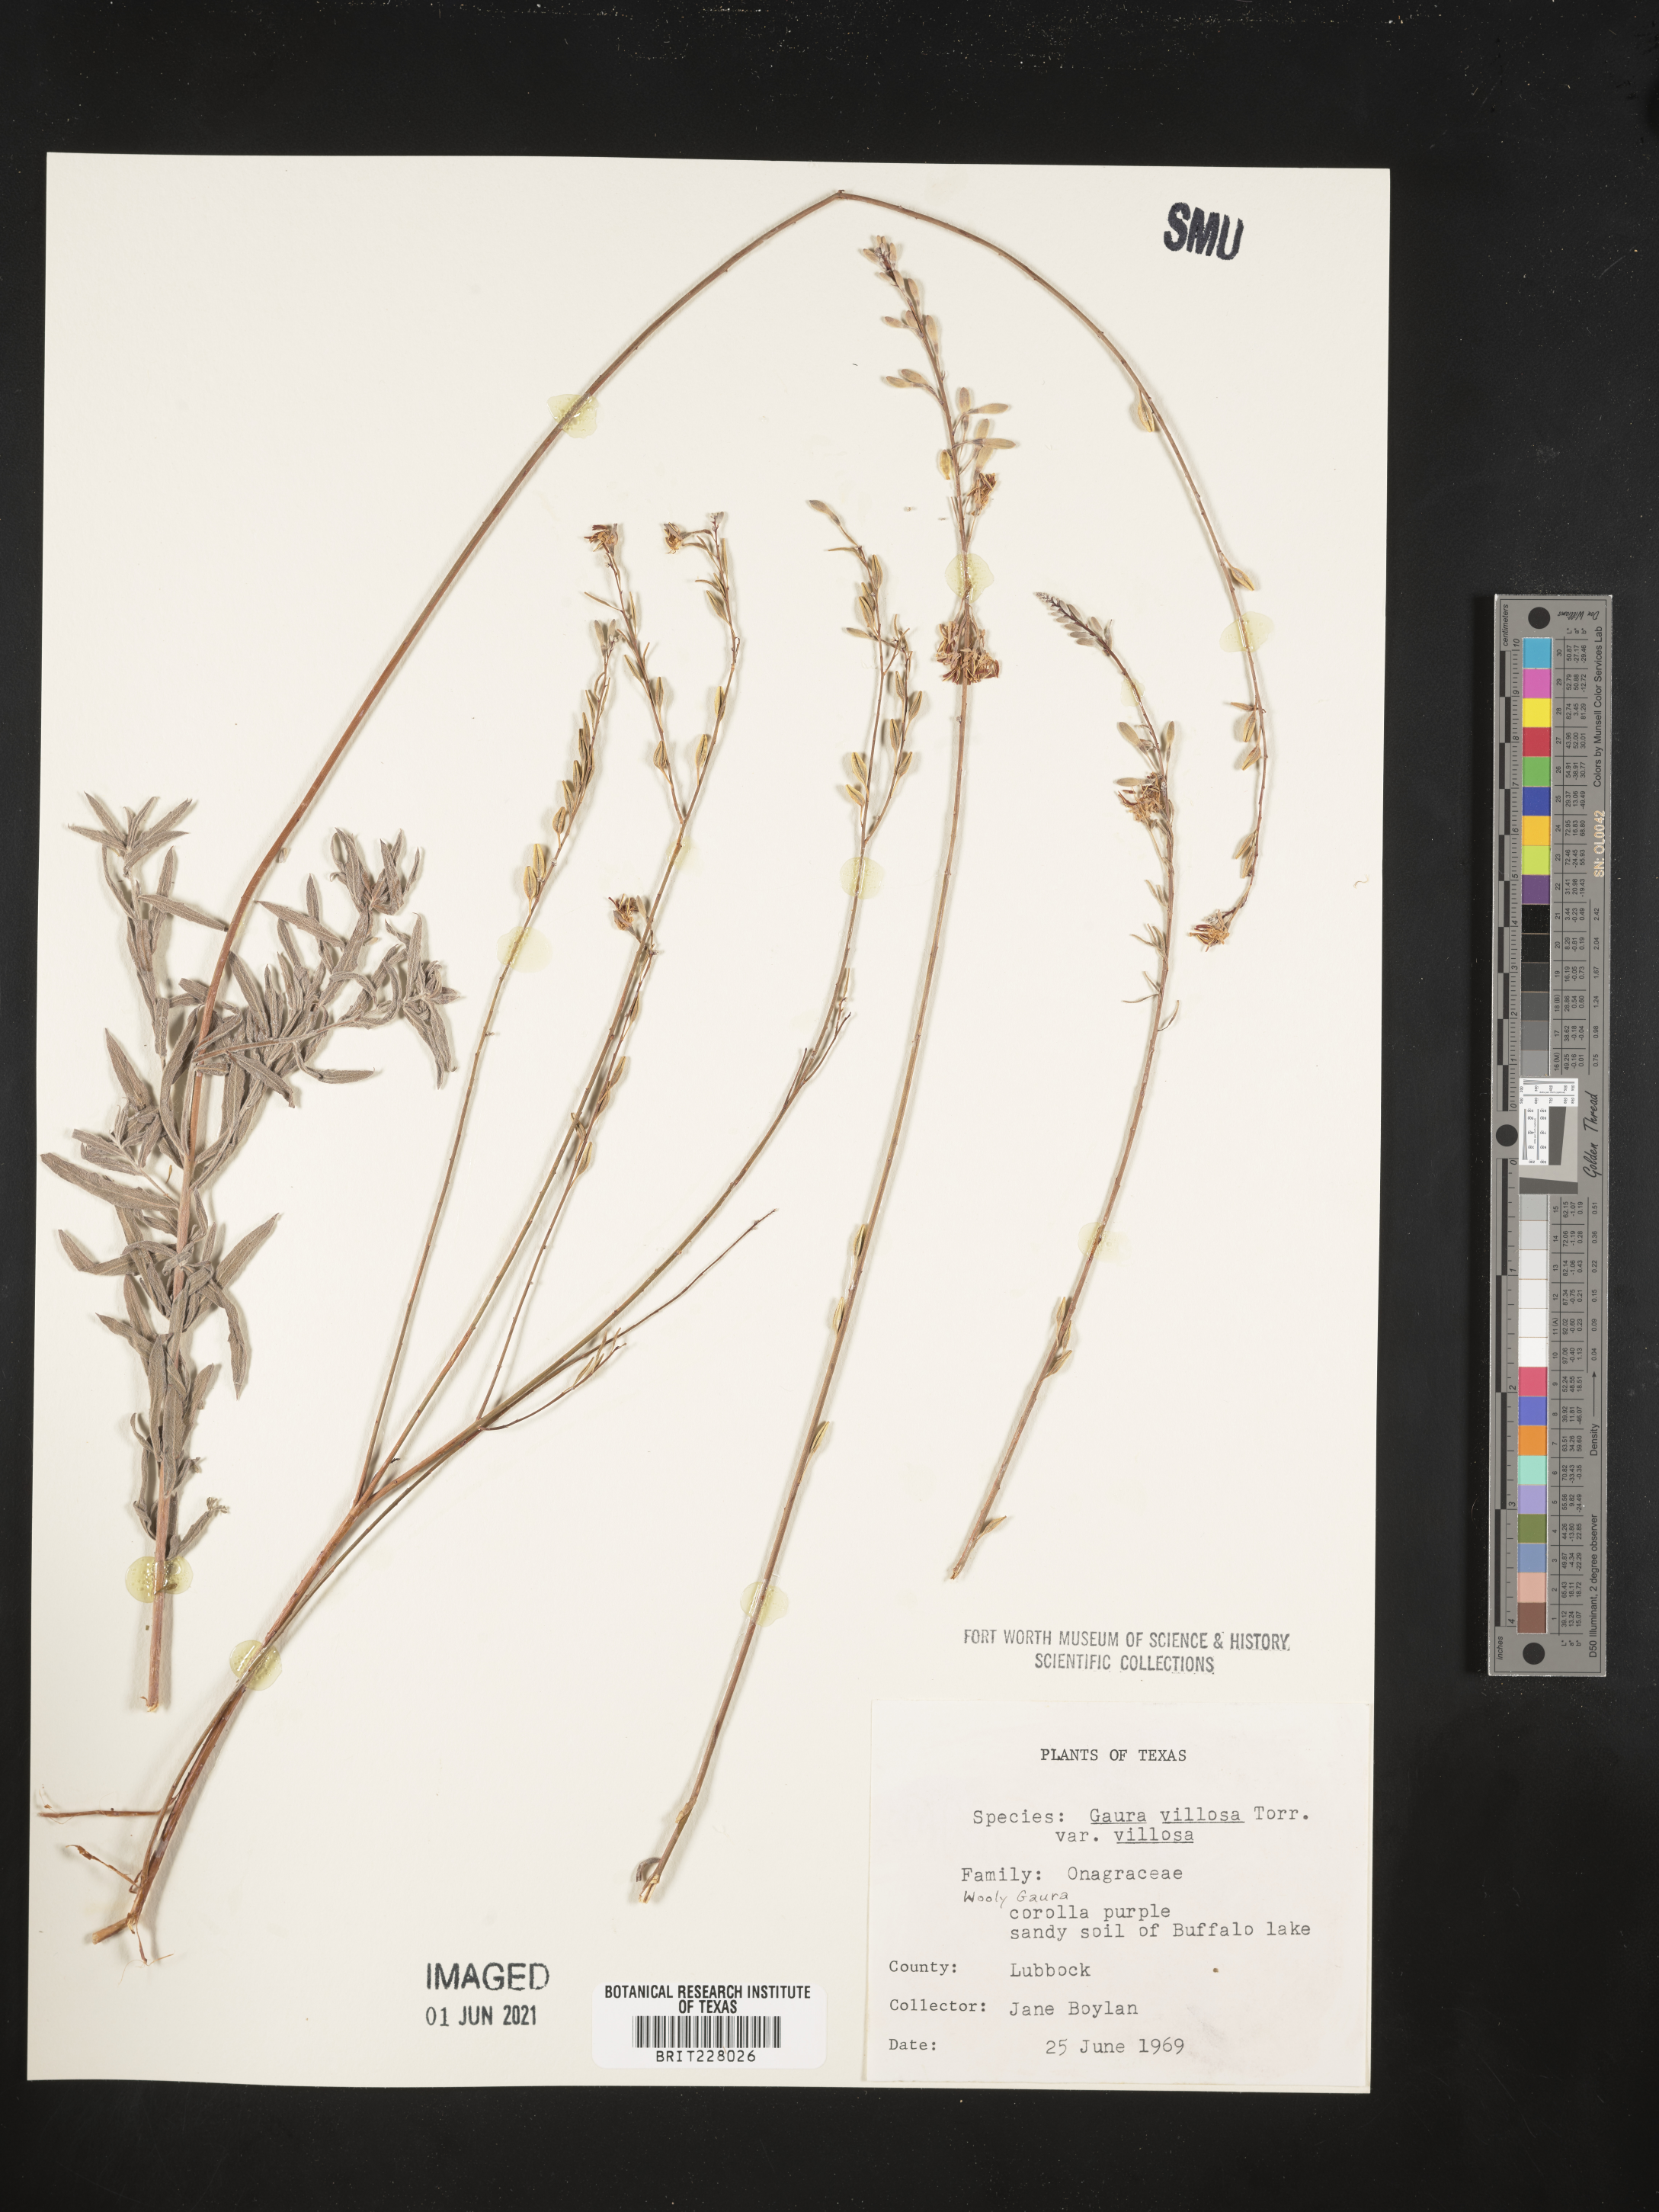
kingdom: Plantae
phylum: Tracheophyta
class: Magnoliopsida
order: Myrtales
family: Onagraceae
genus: Oenothera
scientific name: Oenothera cinerea
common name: Woolly beeblossom
